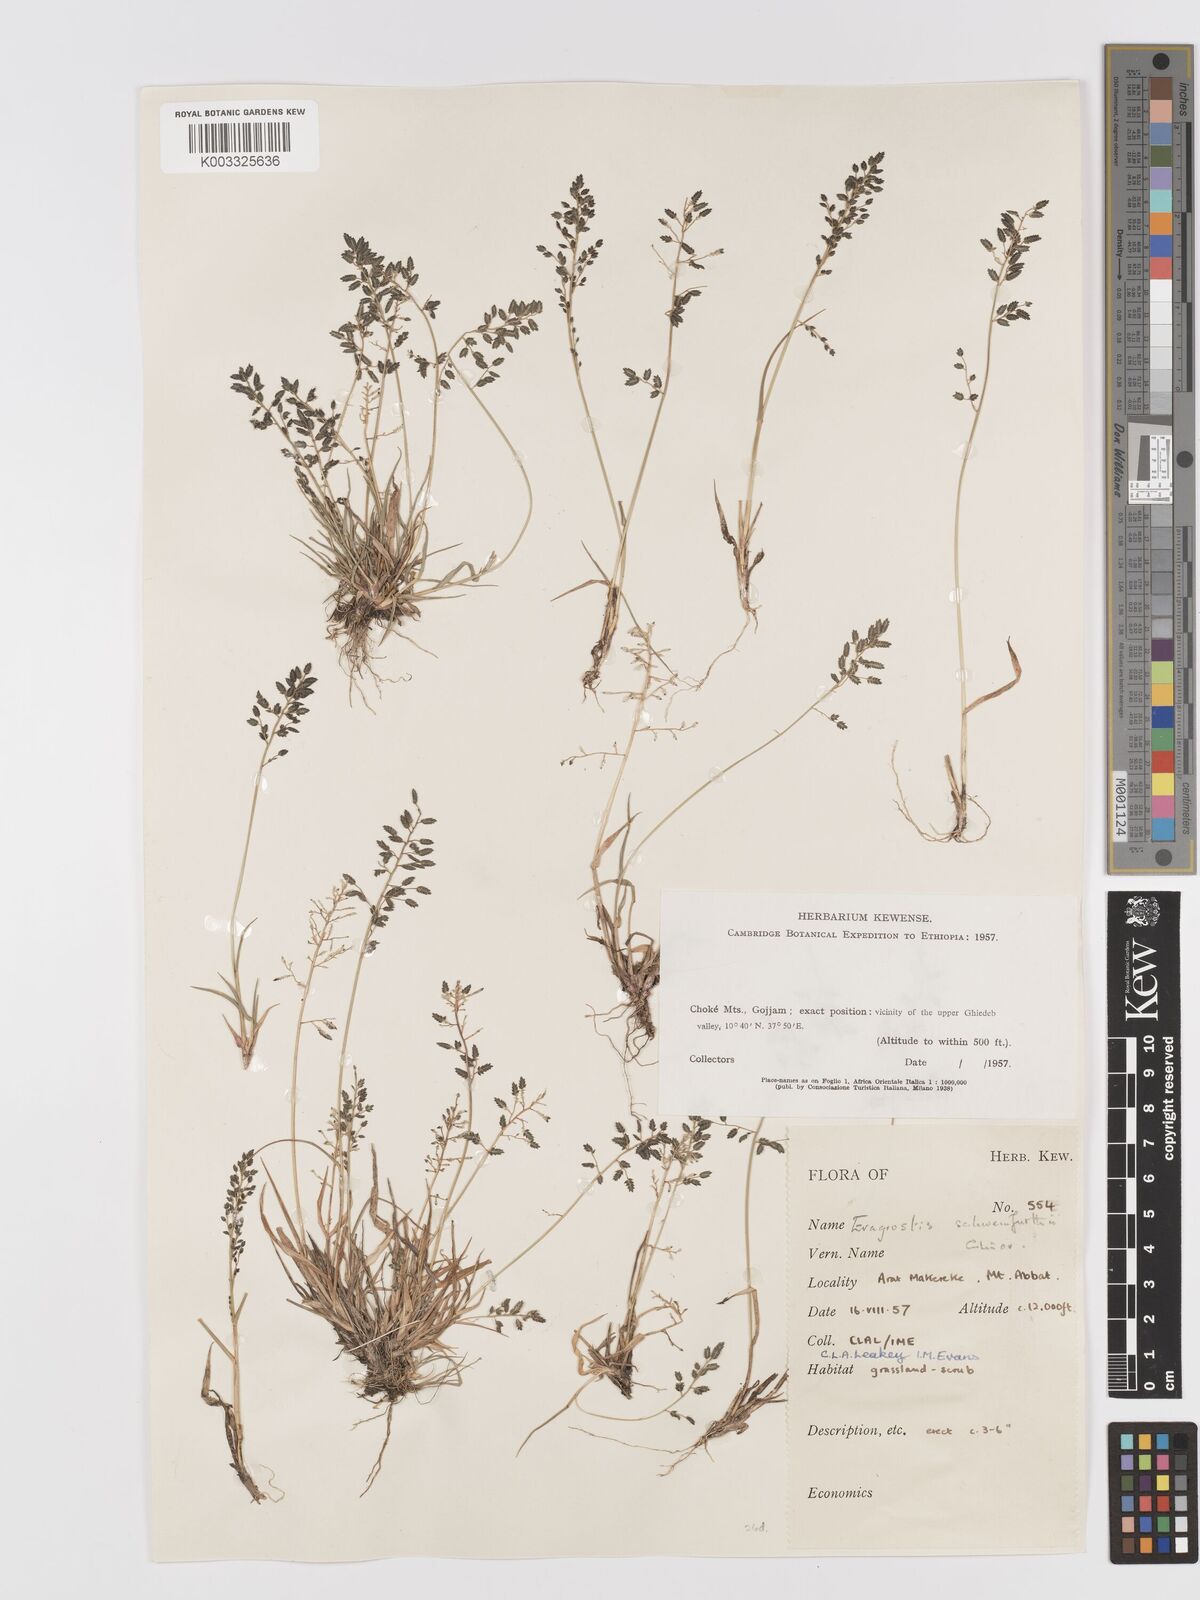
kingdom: Plantae
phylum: Tracheophyta
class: Liliopsida
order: Poales
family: Poaceae
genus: Eragrostis
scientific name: Eragrostis schweinfurthii
